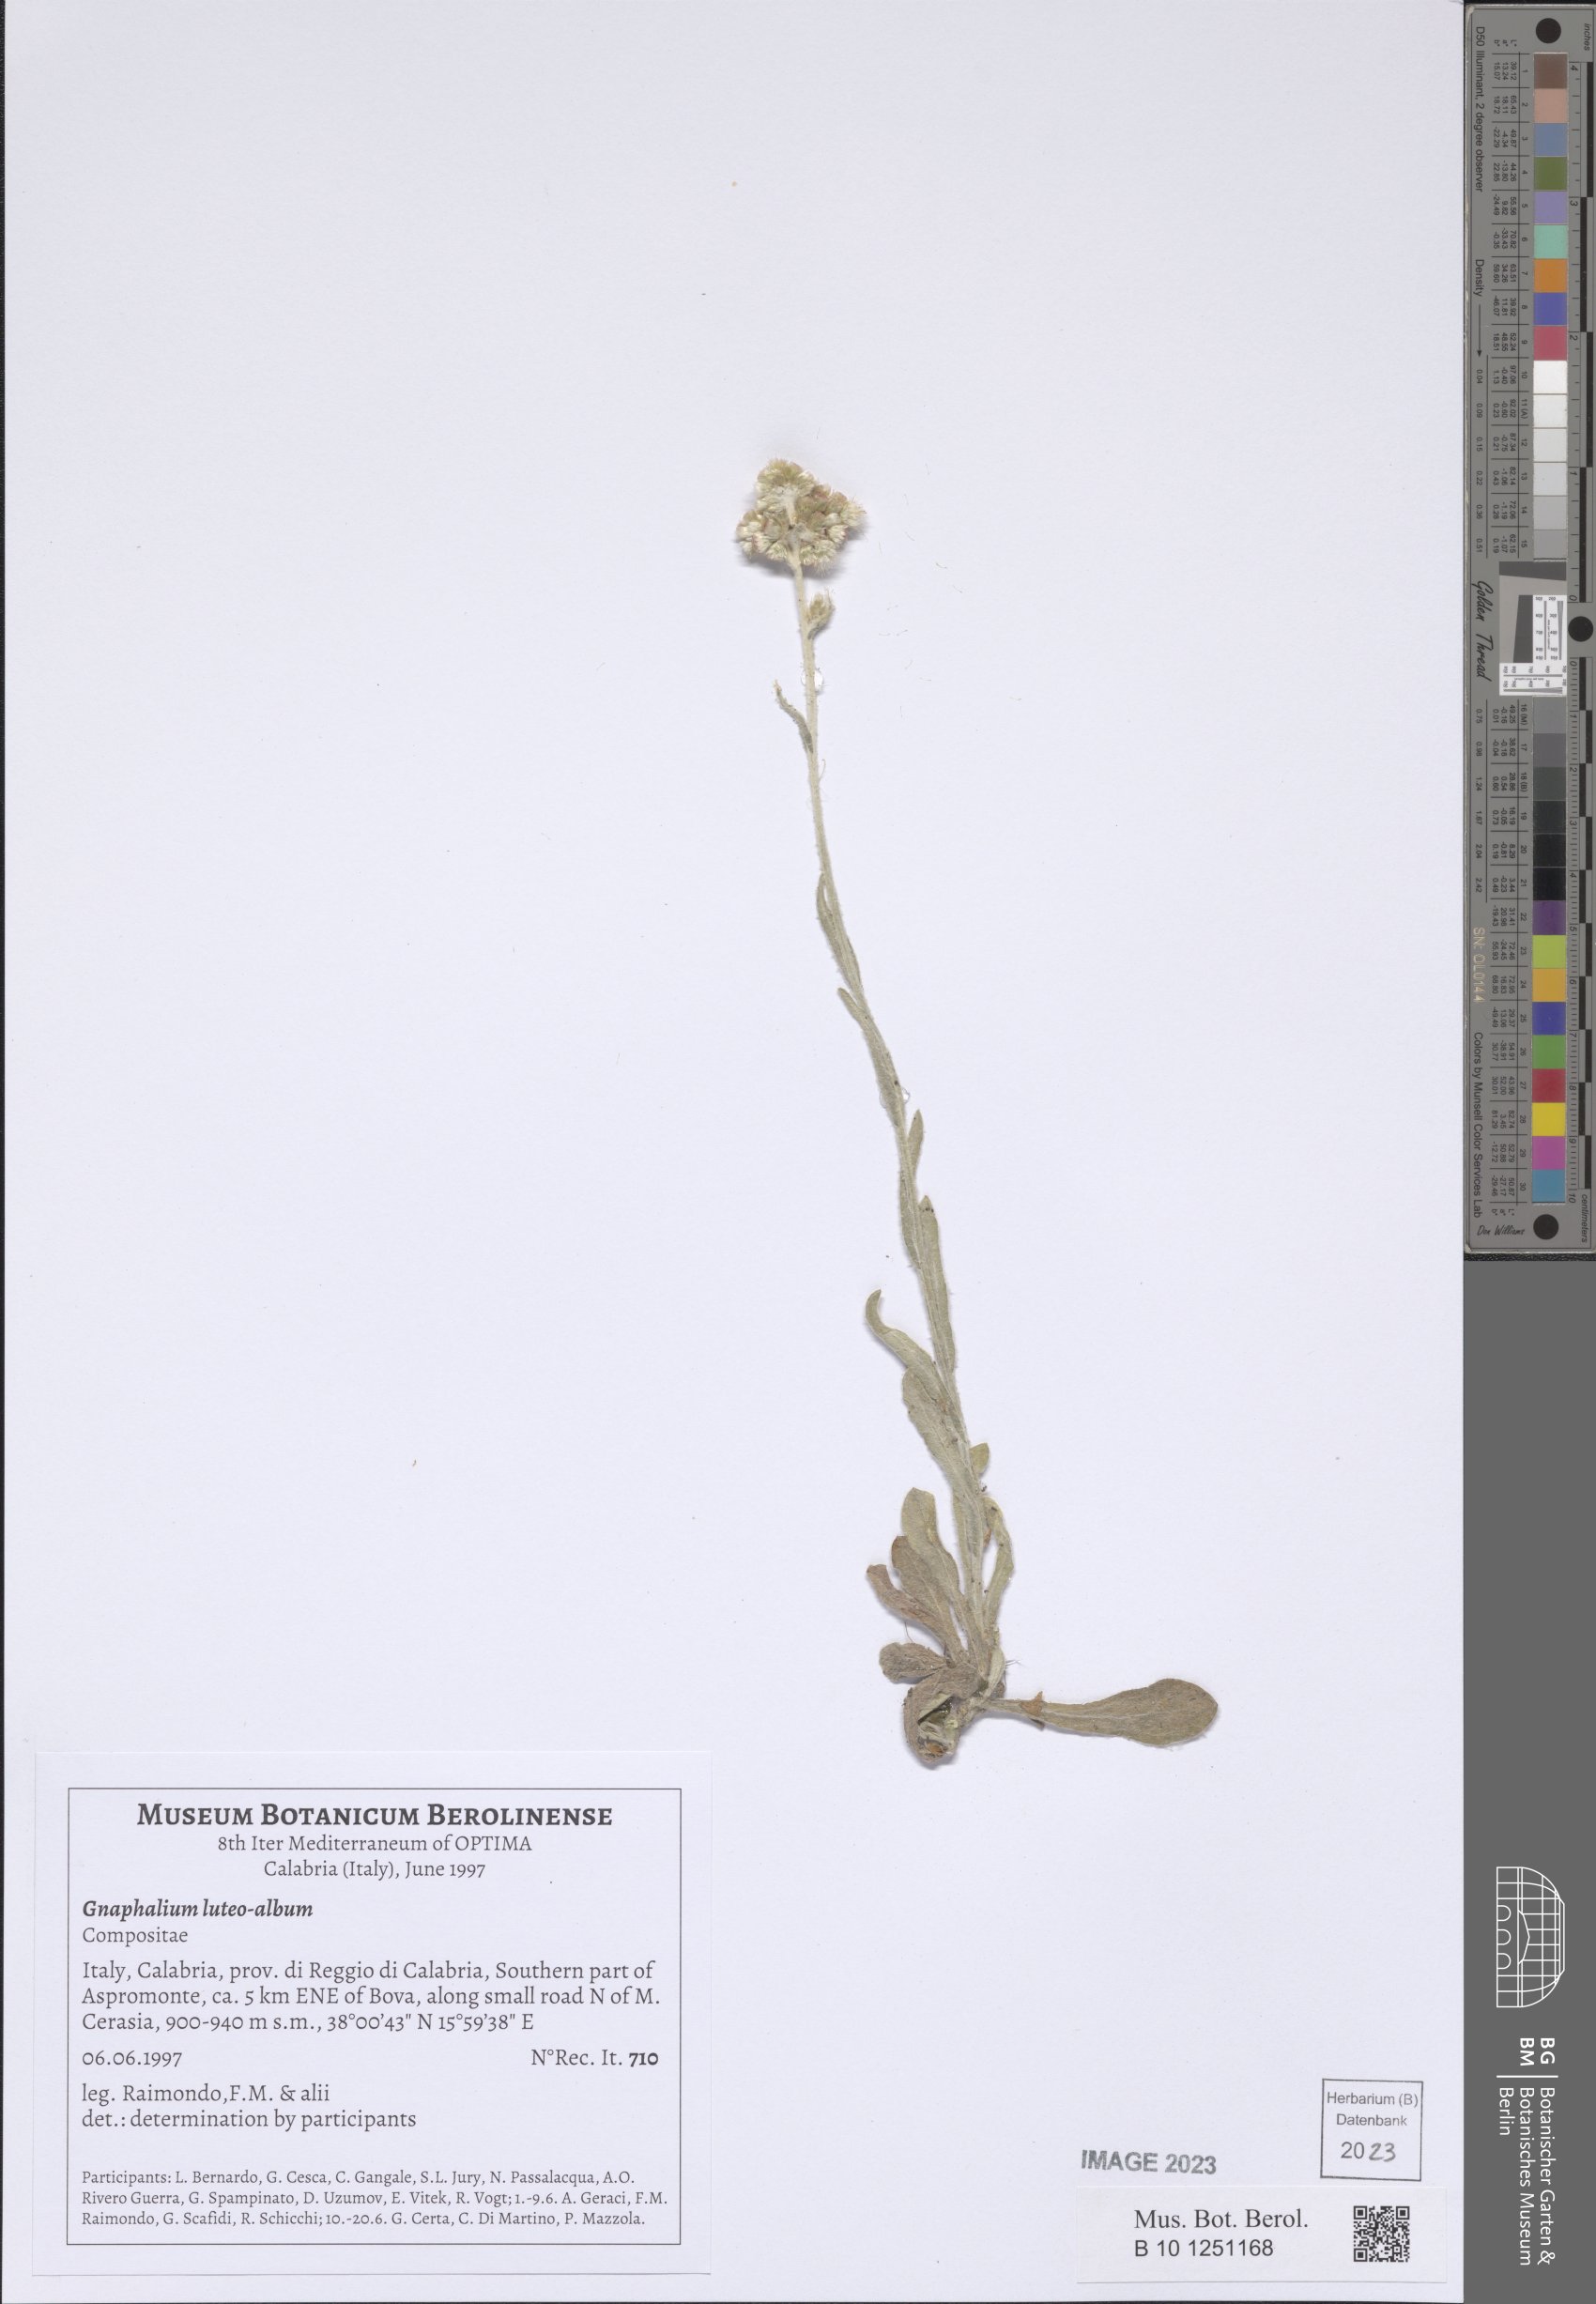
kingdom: Plantae
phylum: Tracheophyta
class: Magnoliopsida
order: Asterales
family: Asteraceae
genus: Helichrysum
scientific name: Helichrysum luteoalbum
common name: Daisy
